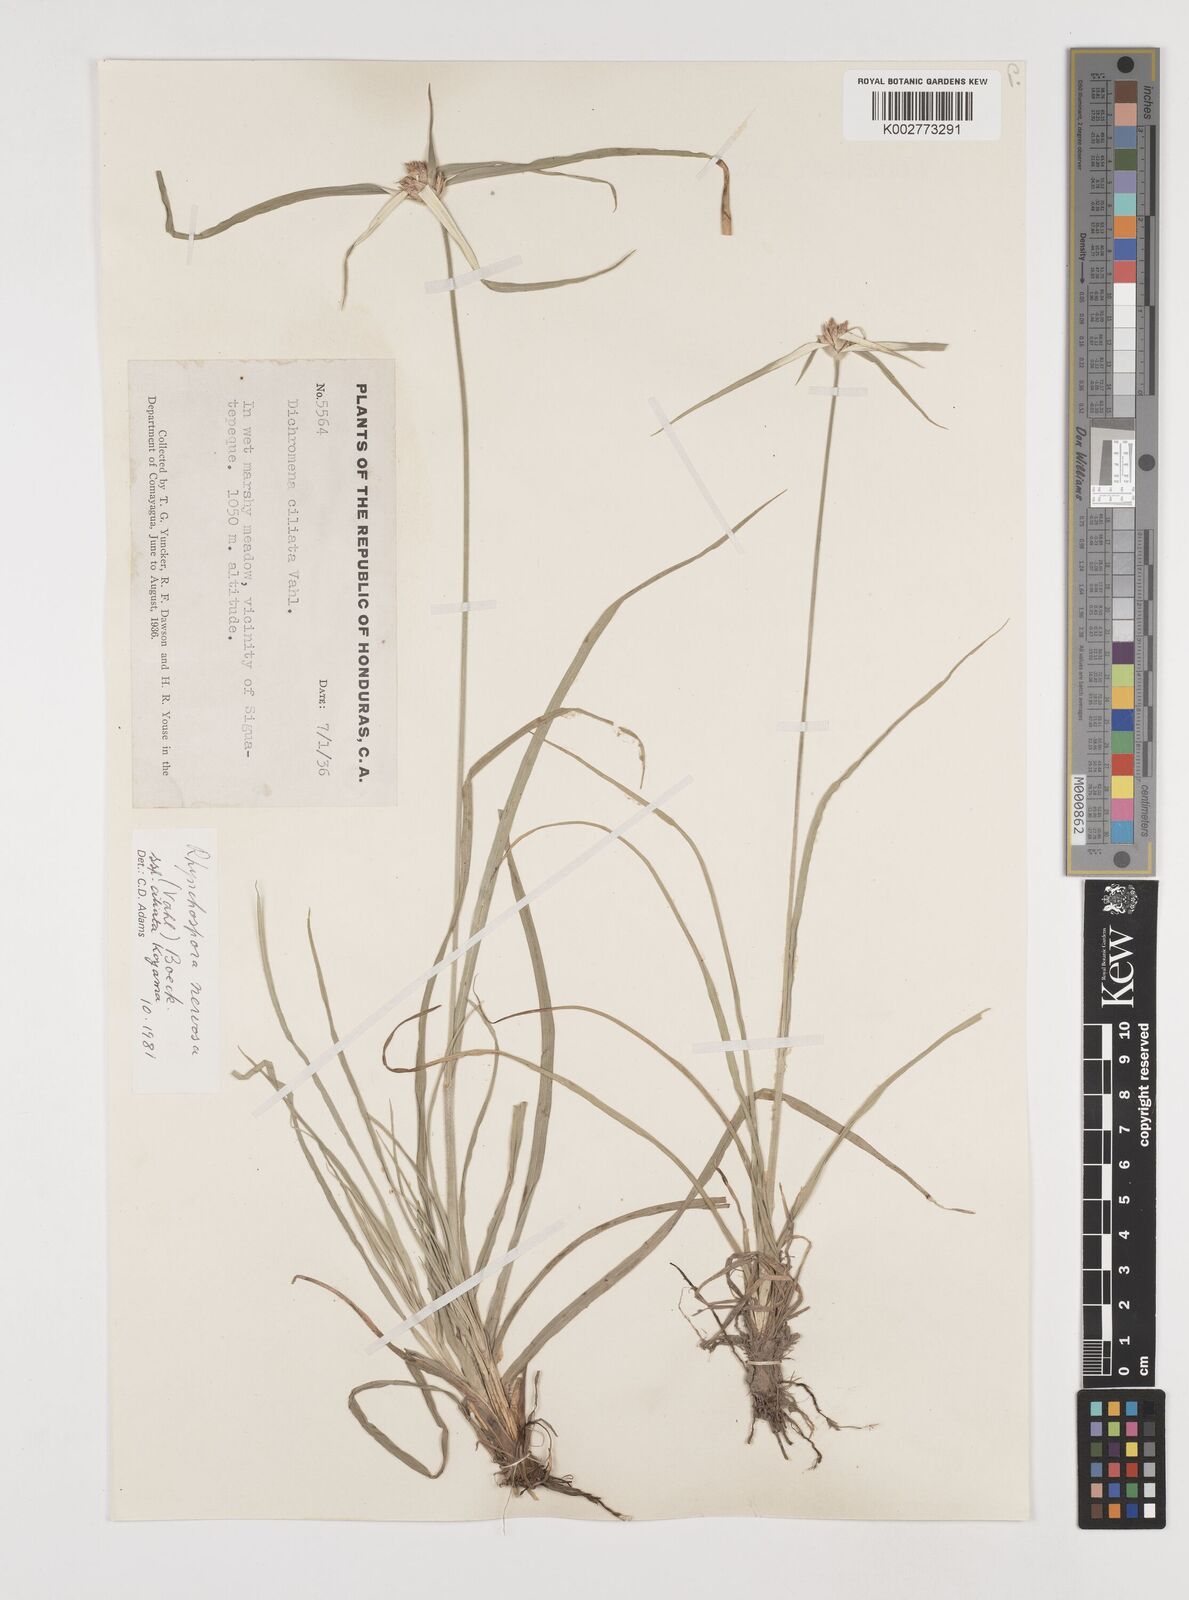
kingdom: Plantae
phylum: Tracheophyta
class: Liliopsida
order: Poales
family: Cyperaceae
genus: Rhynchospora
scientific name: Rhynchospora pura
